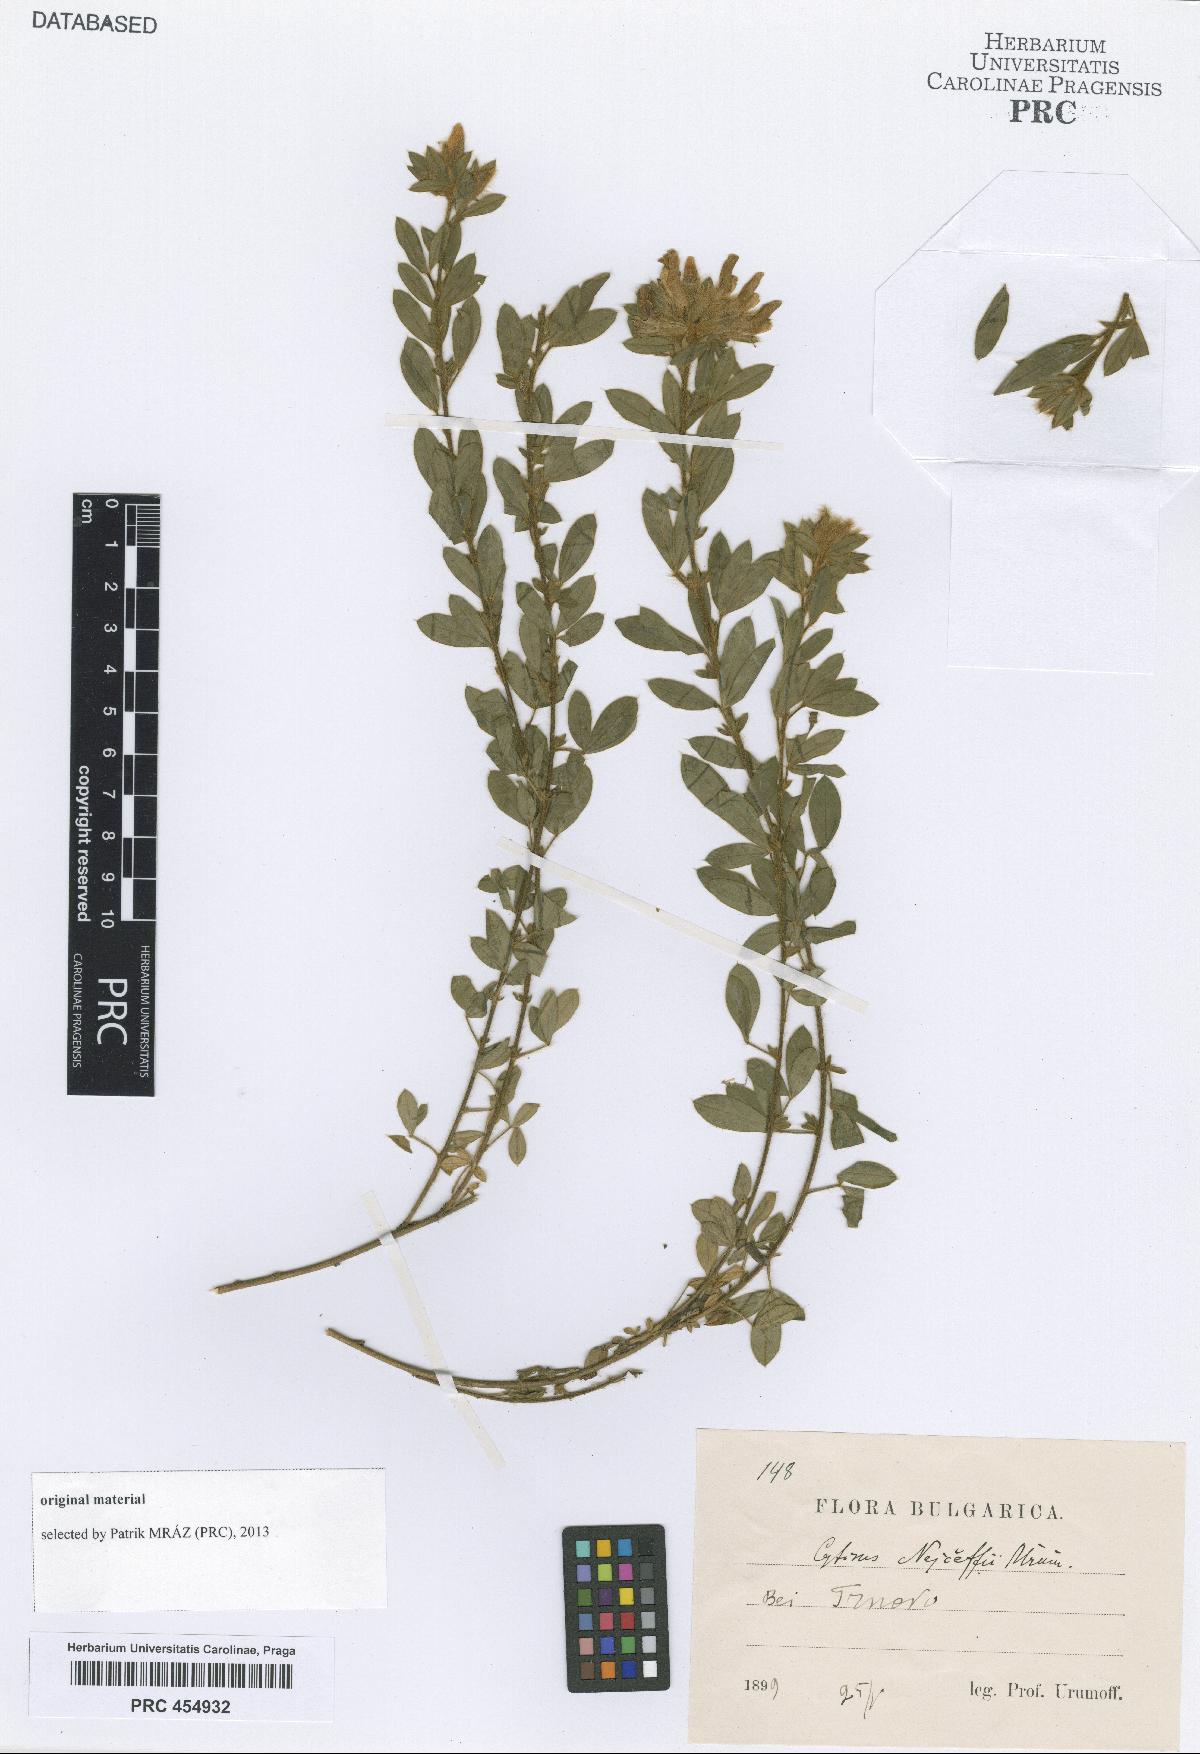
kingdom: Plantae
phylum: Tracheophyta
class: Magnoliopsida
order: Fabales
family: Fabaceae
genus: Chamaecytisus
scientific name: Chamaecytisus nejceffii
